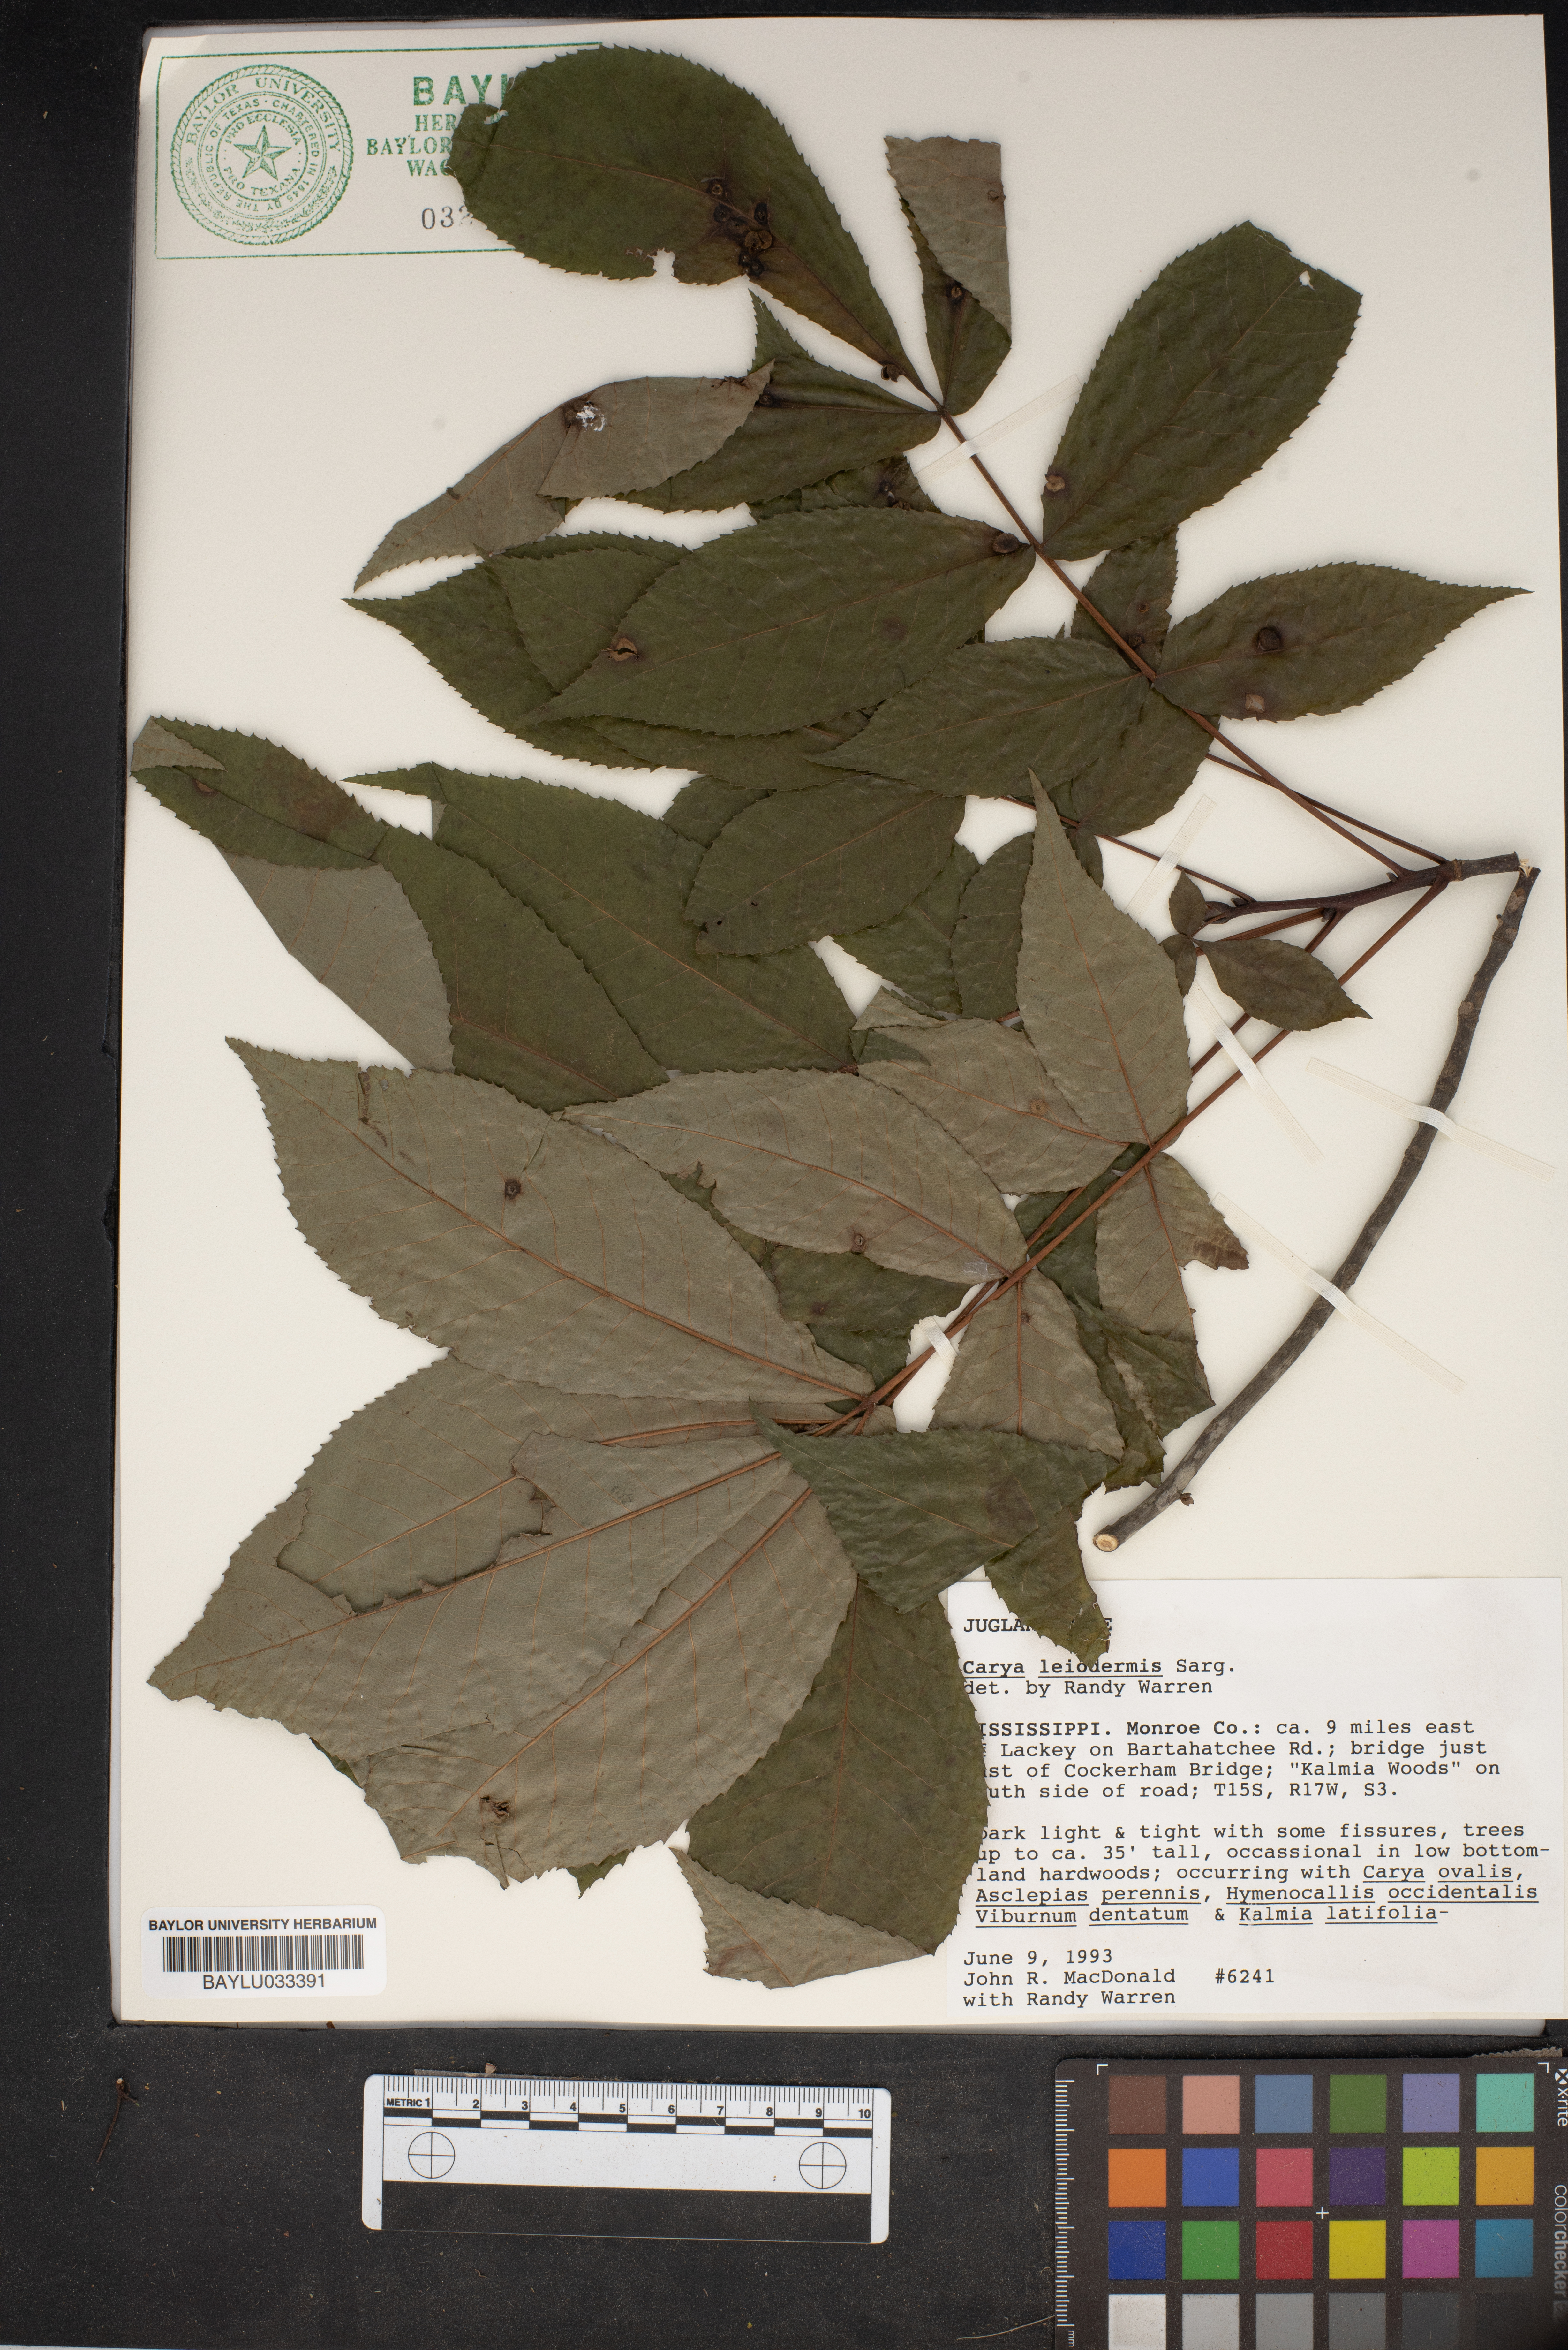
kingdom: Plantae
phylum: Tracheophyta
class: Magnoliopsida
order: Fagales
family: Juglandaceae
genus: Carya
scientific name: Carya glabra
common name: Pignut hickory
